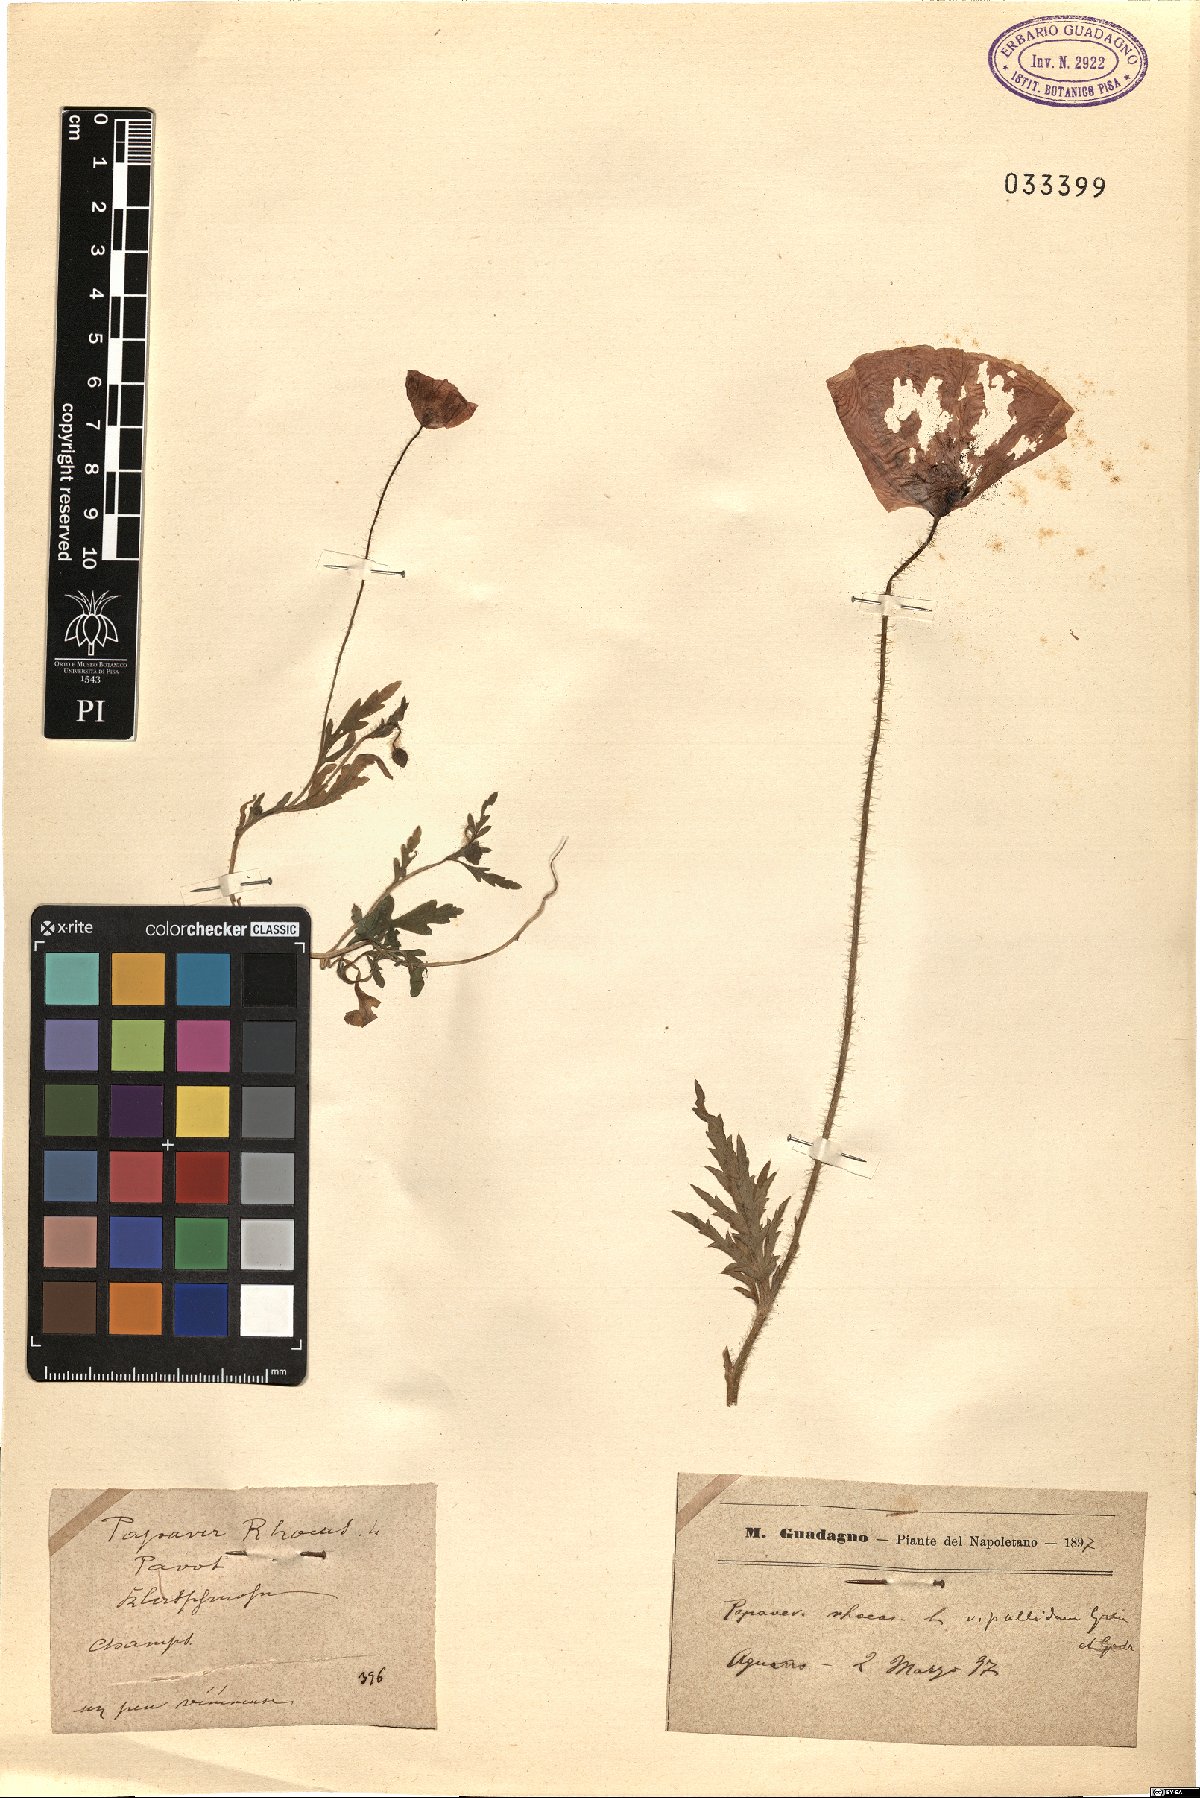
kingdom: Plantae
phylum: Tracheophyta
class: Magnoliopsida
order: Ranunculales
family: Papaveraceae
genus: Papaver
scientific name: Papaver rhoeas
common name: Corn poppy
